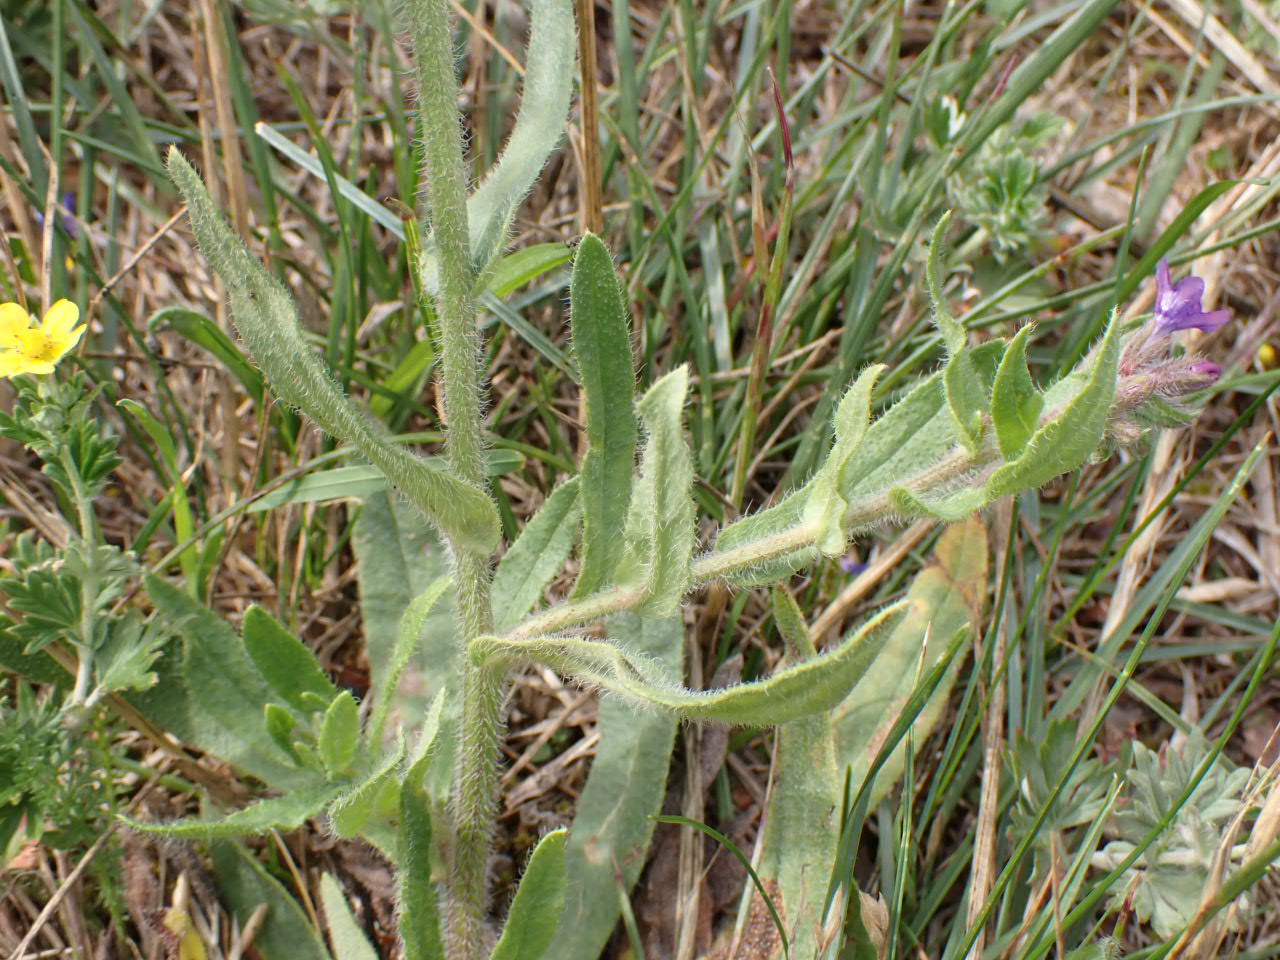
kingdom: Plantae
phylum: Tracheophyta
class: Magnoliopsida
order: Boraginales
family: Boraginaceae
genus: Anchusa
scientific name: Anchusa officinalis
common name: Læge-oksetunge
